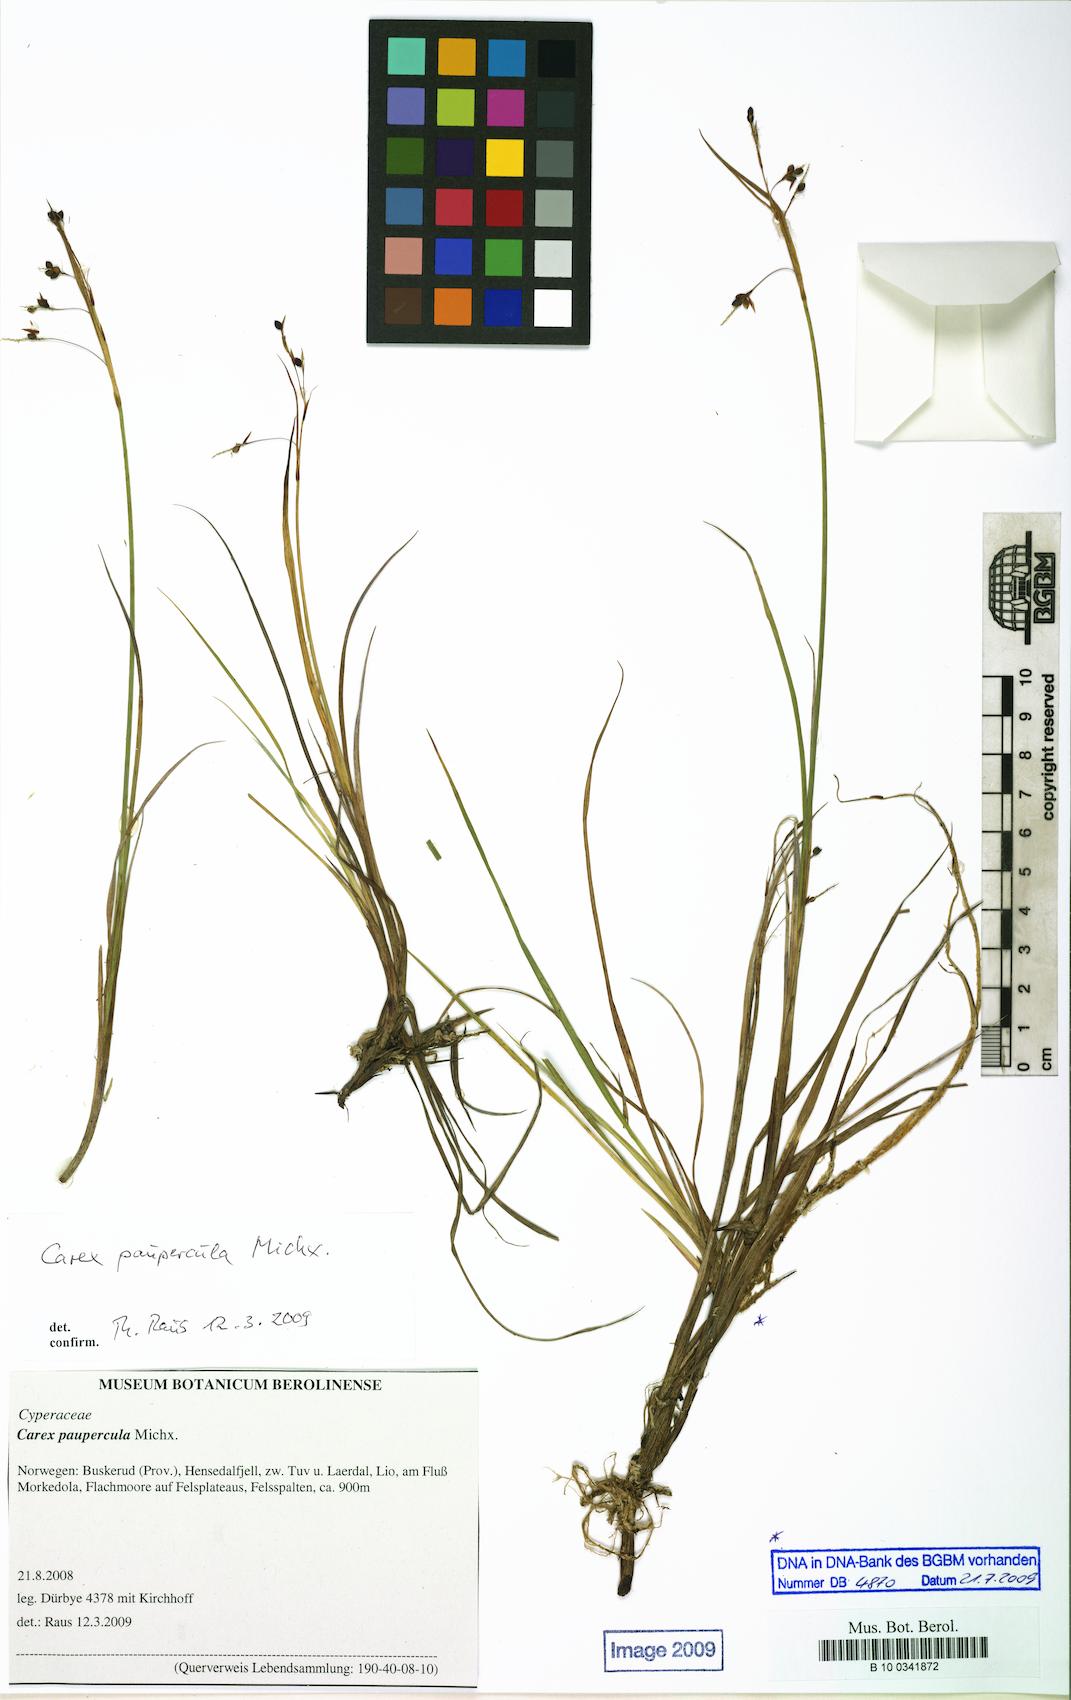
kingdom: Plantae
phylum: Tracheophyta
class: Liliopsida
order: Poales
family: Cyperaceae
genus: Carex
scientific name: Carex magellanica
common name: Bog sedge
